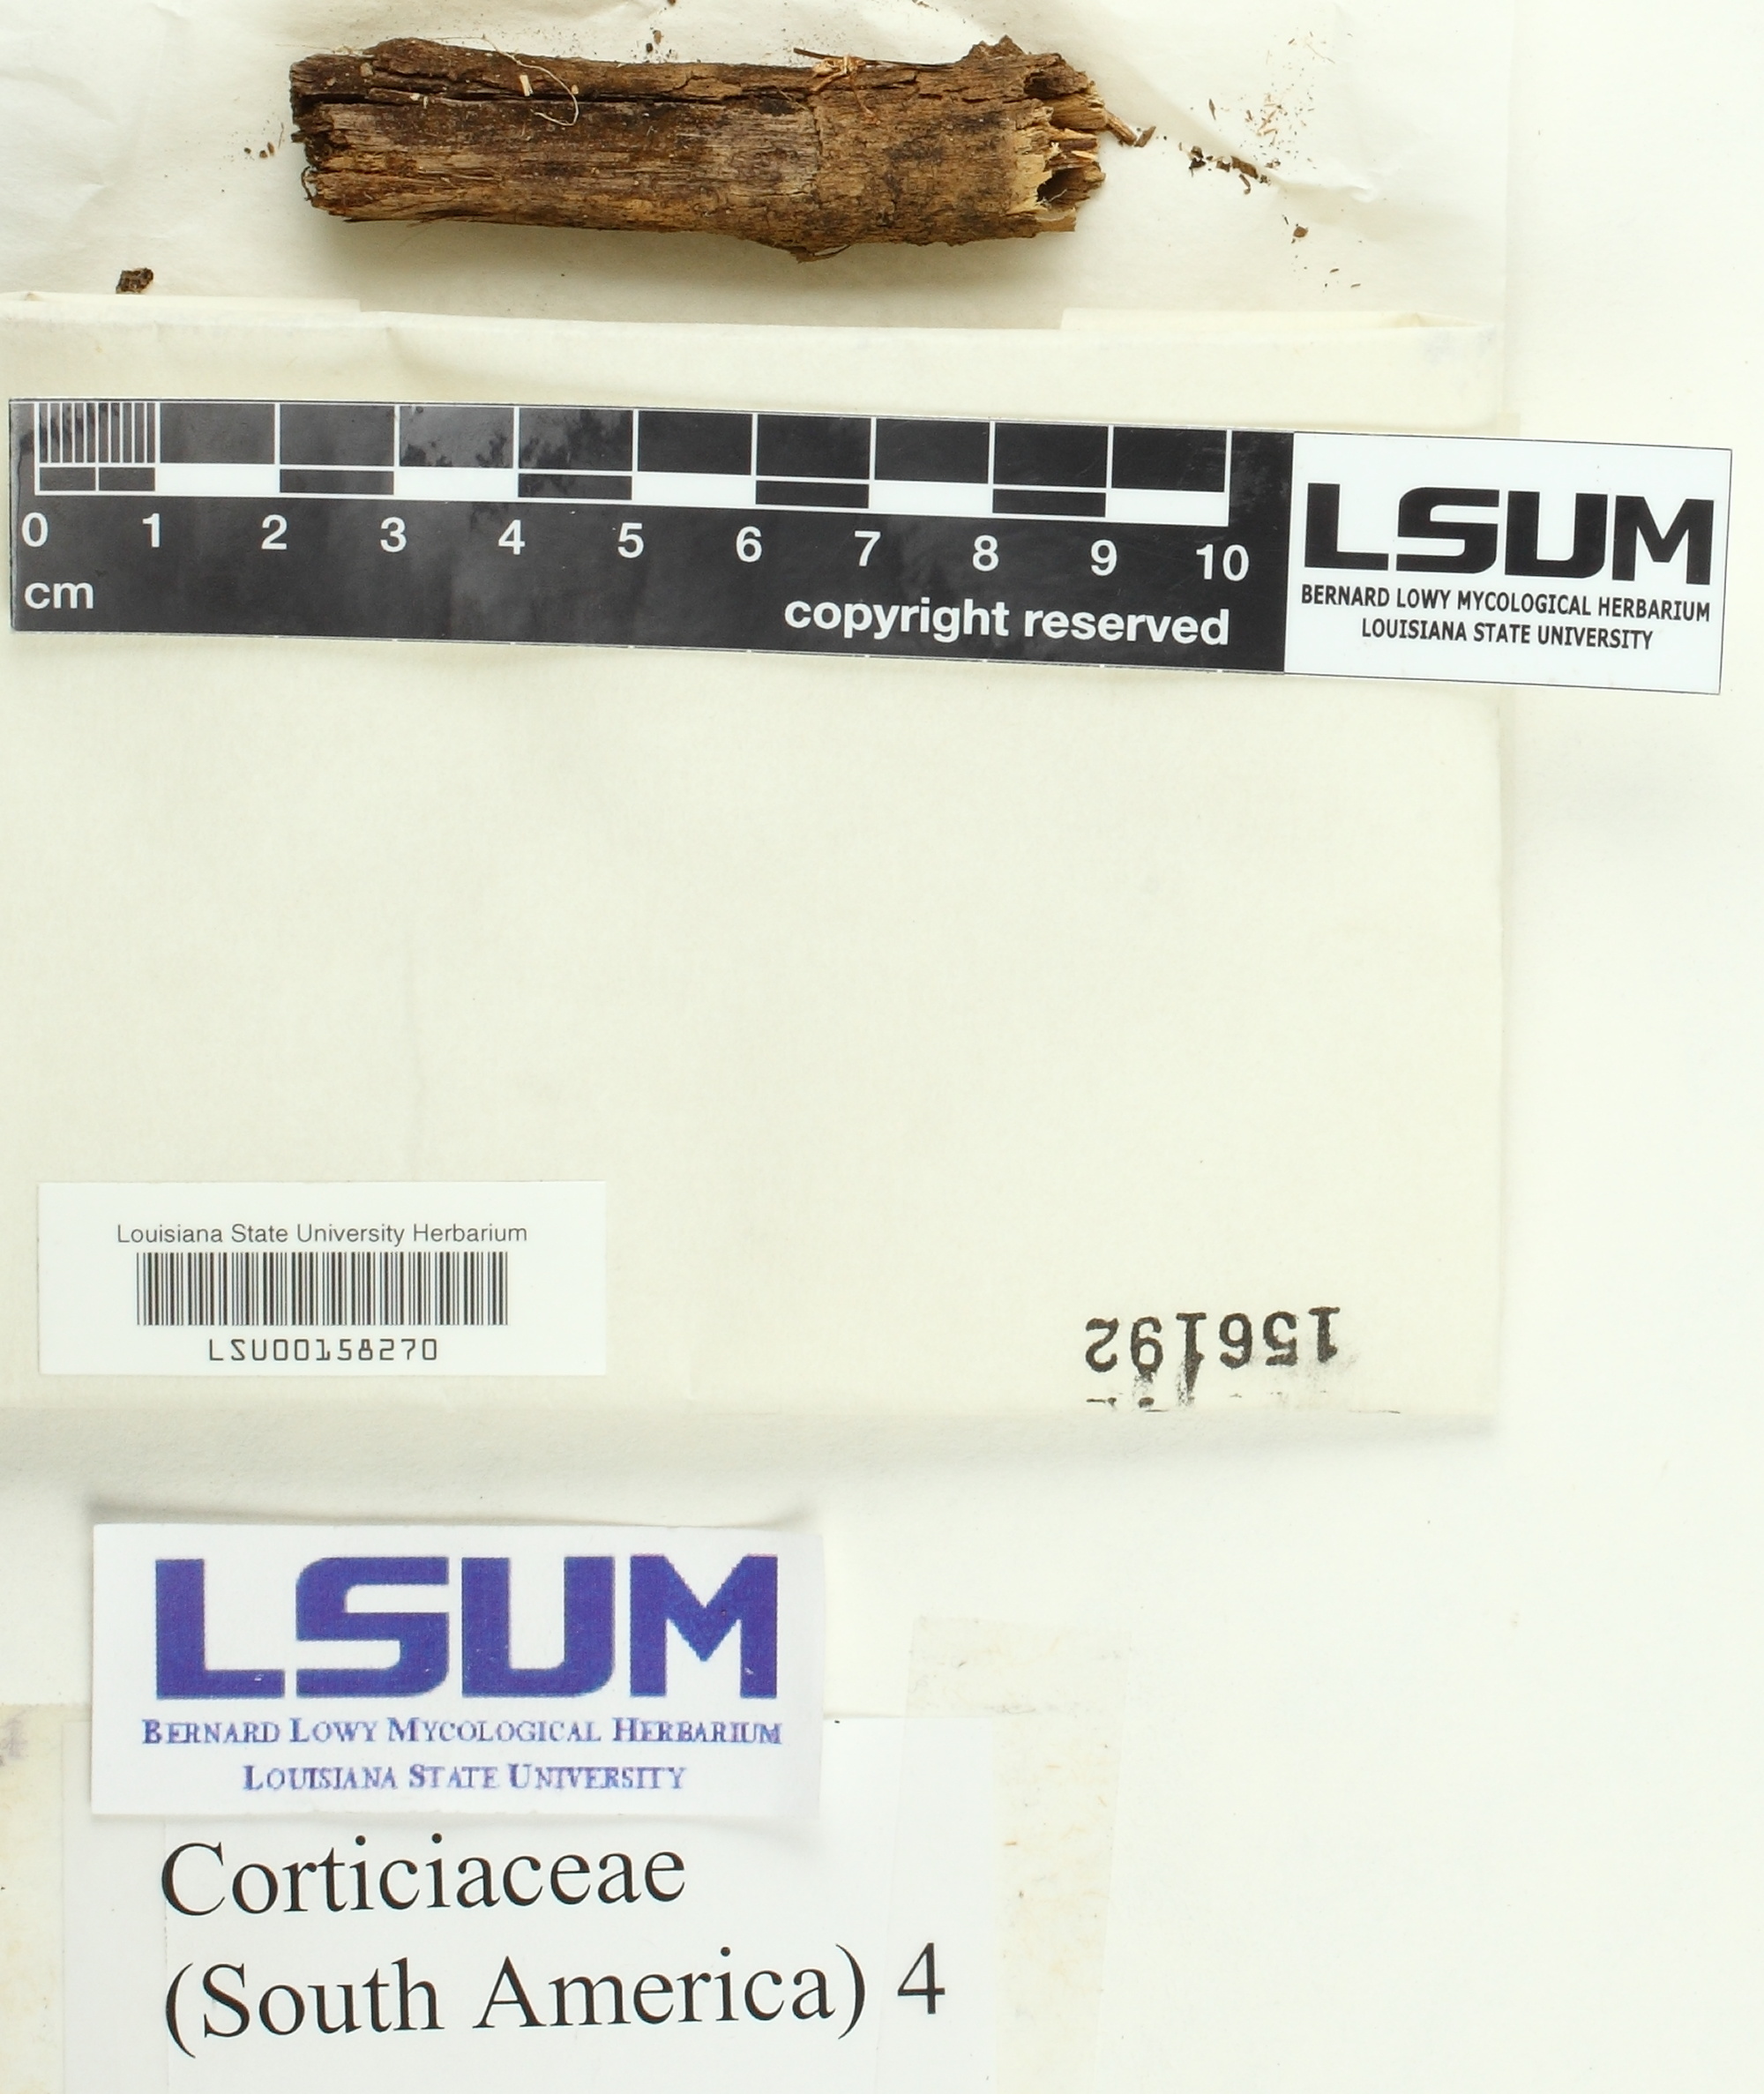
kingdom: Fungi
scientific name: Fungi
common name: Fungi
